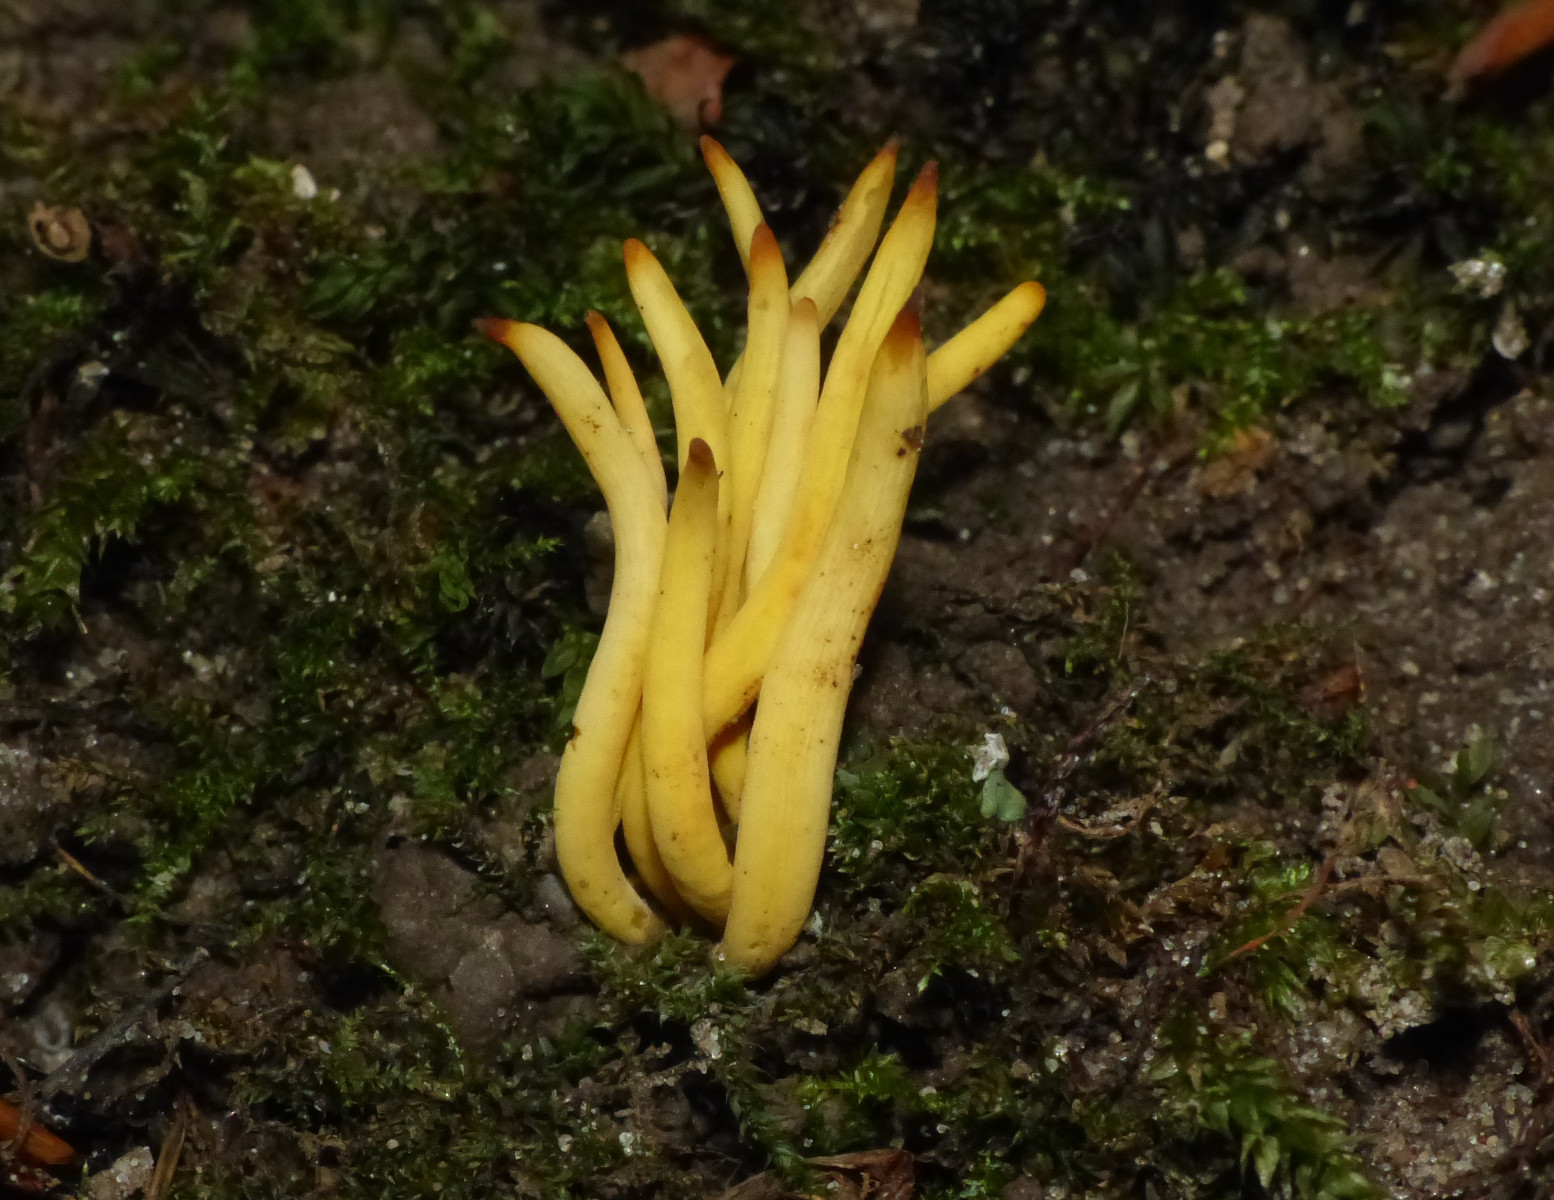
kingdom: Fungi
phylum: Basidiomycota
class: Agaricomycetes
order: Agaricales
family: Clavariaceae
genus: Clavulinopsis
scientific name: Clavulinopsis
